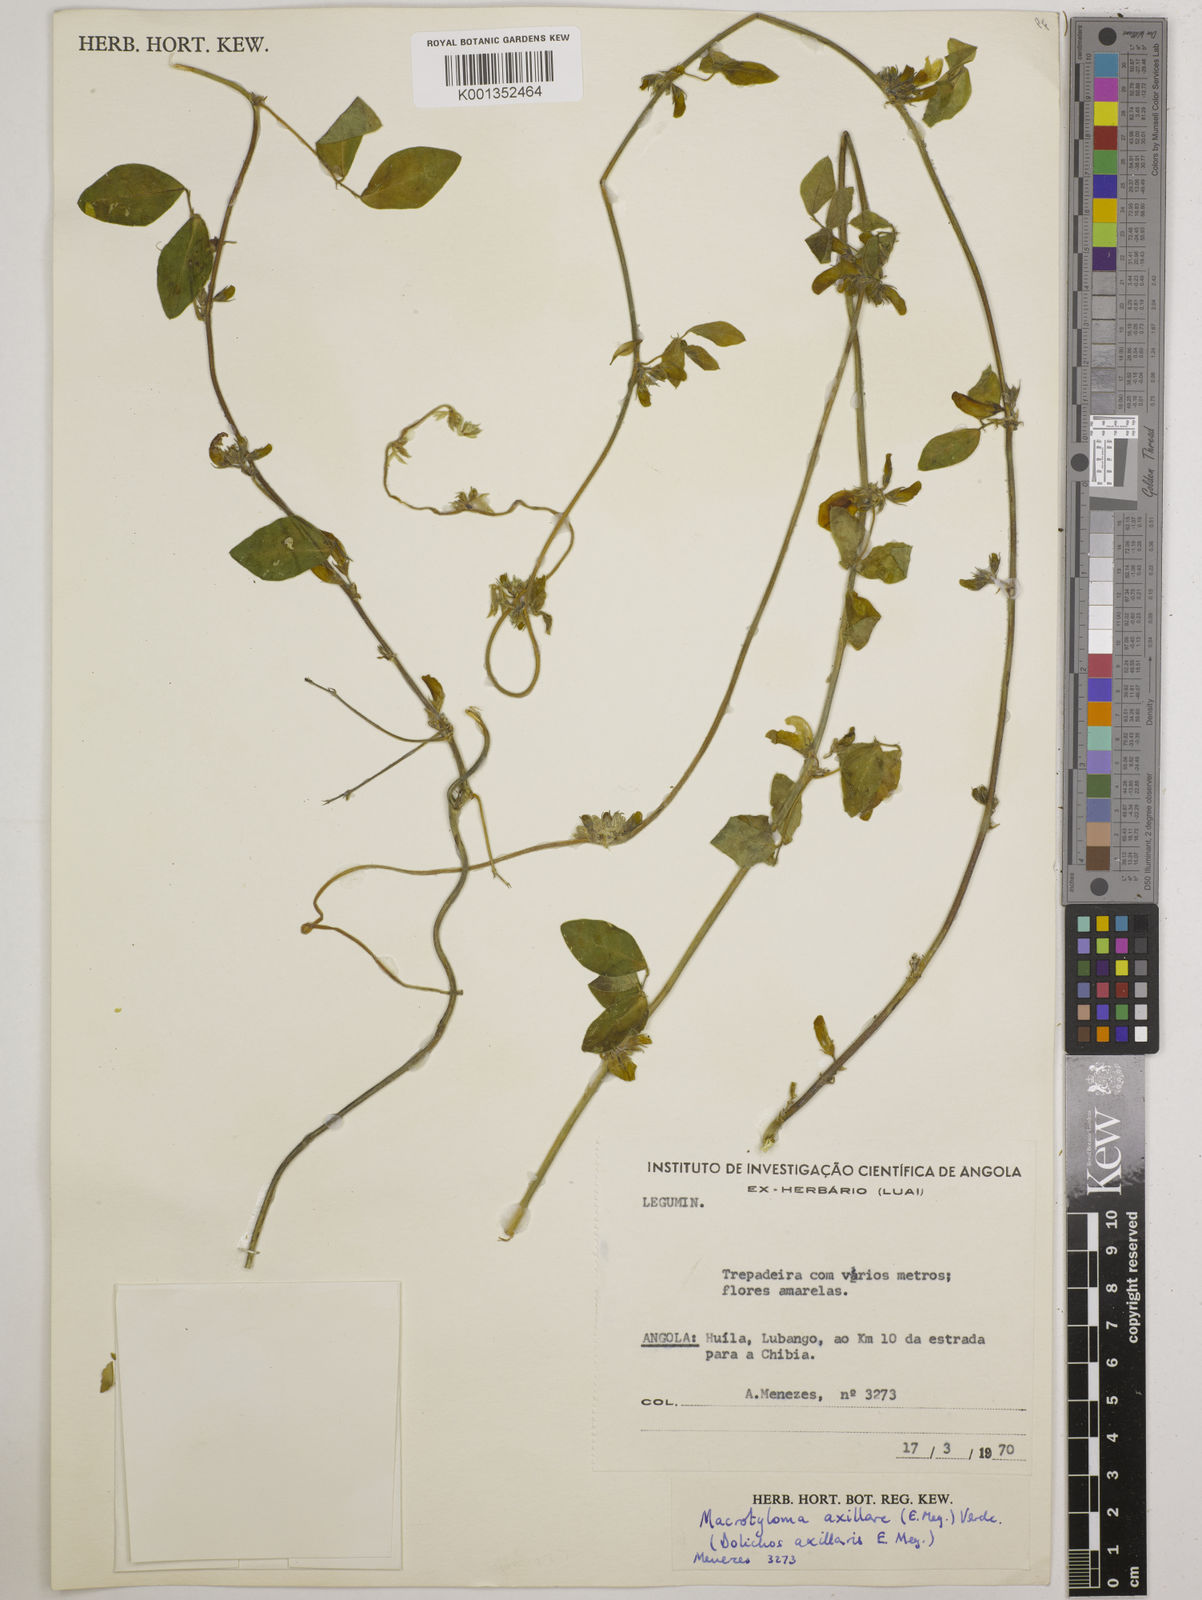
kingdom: Plantae
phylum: Tracheophyta
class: Magnoliopsida
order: Fabales
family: Fabaceae
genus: Macrotyloma
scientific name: Macrotyloma axillare
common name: Perennial horsegram
